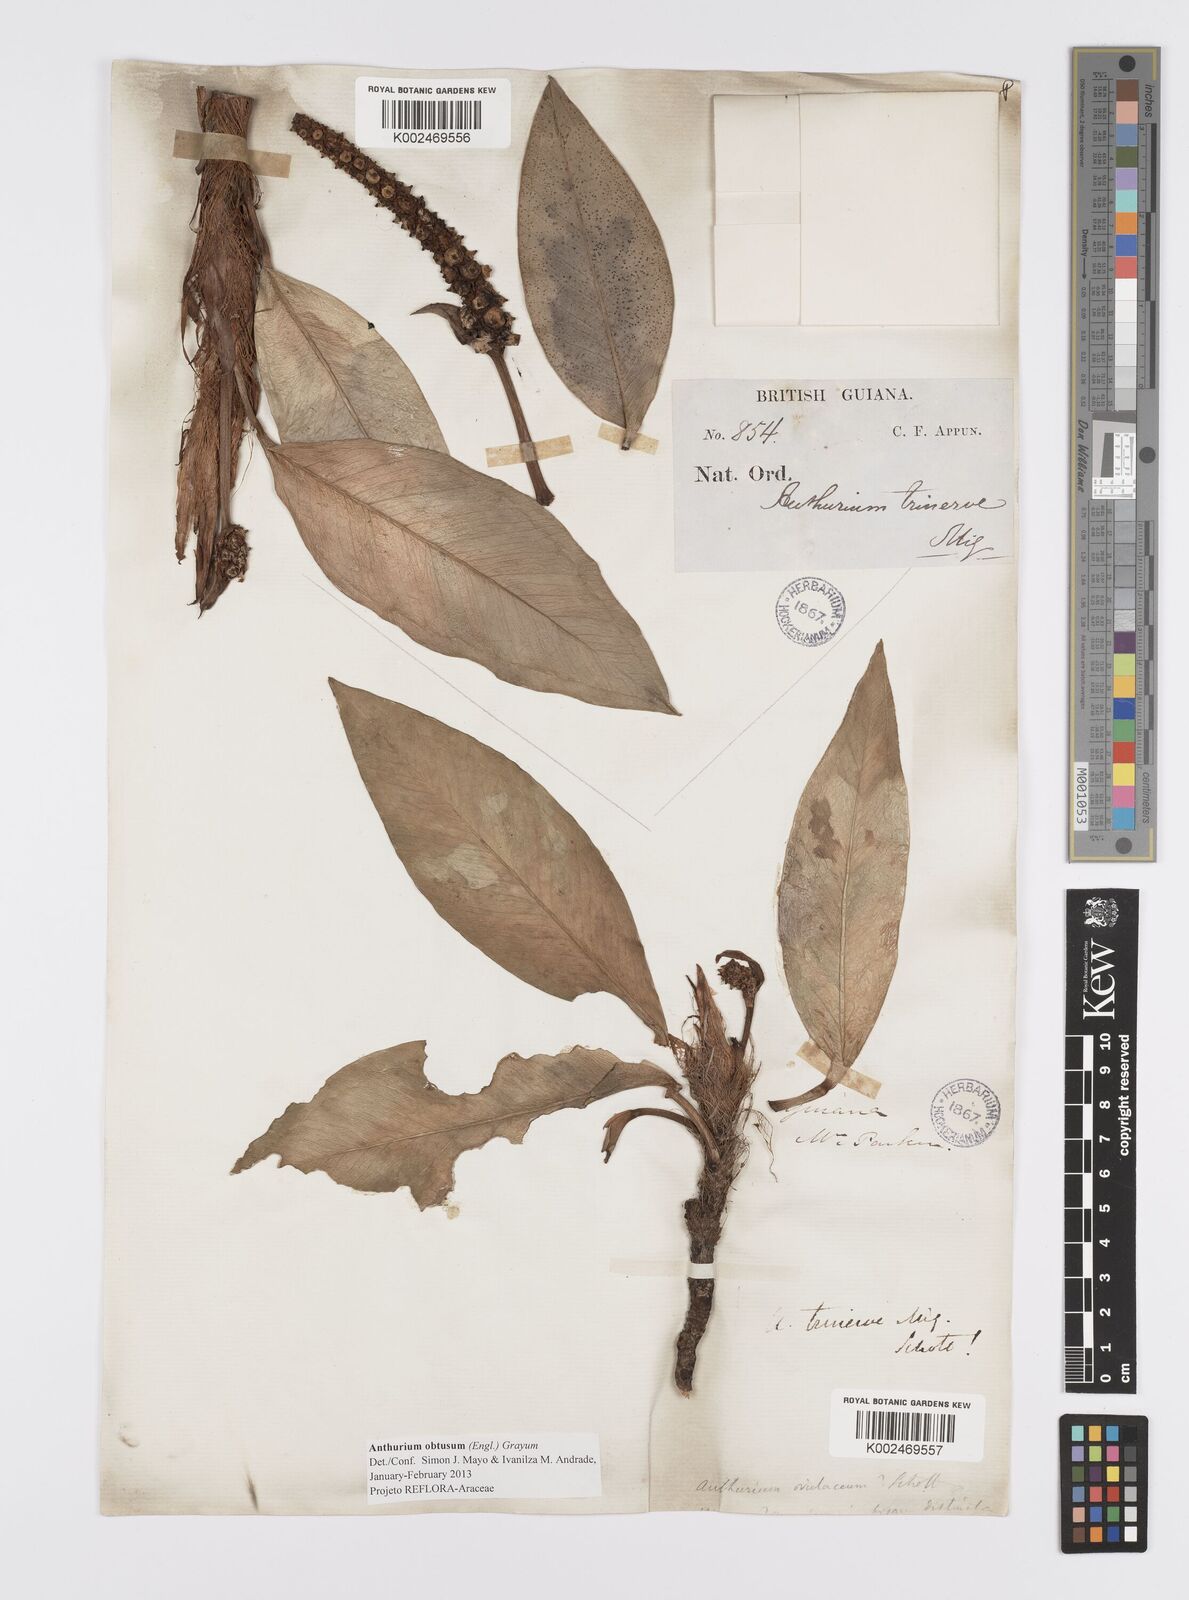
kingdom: Plantae
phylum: Tracheophyta
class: Liliopsida
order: Alismatales
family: Araceae
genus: Anthurium
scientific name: Anthurium obtusum
